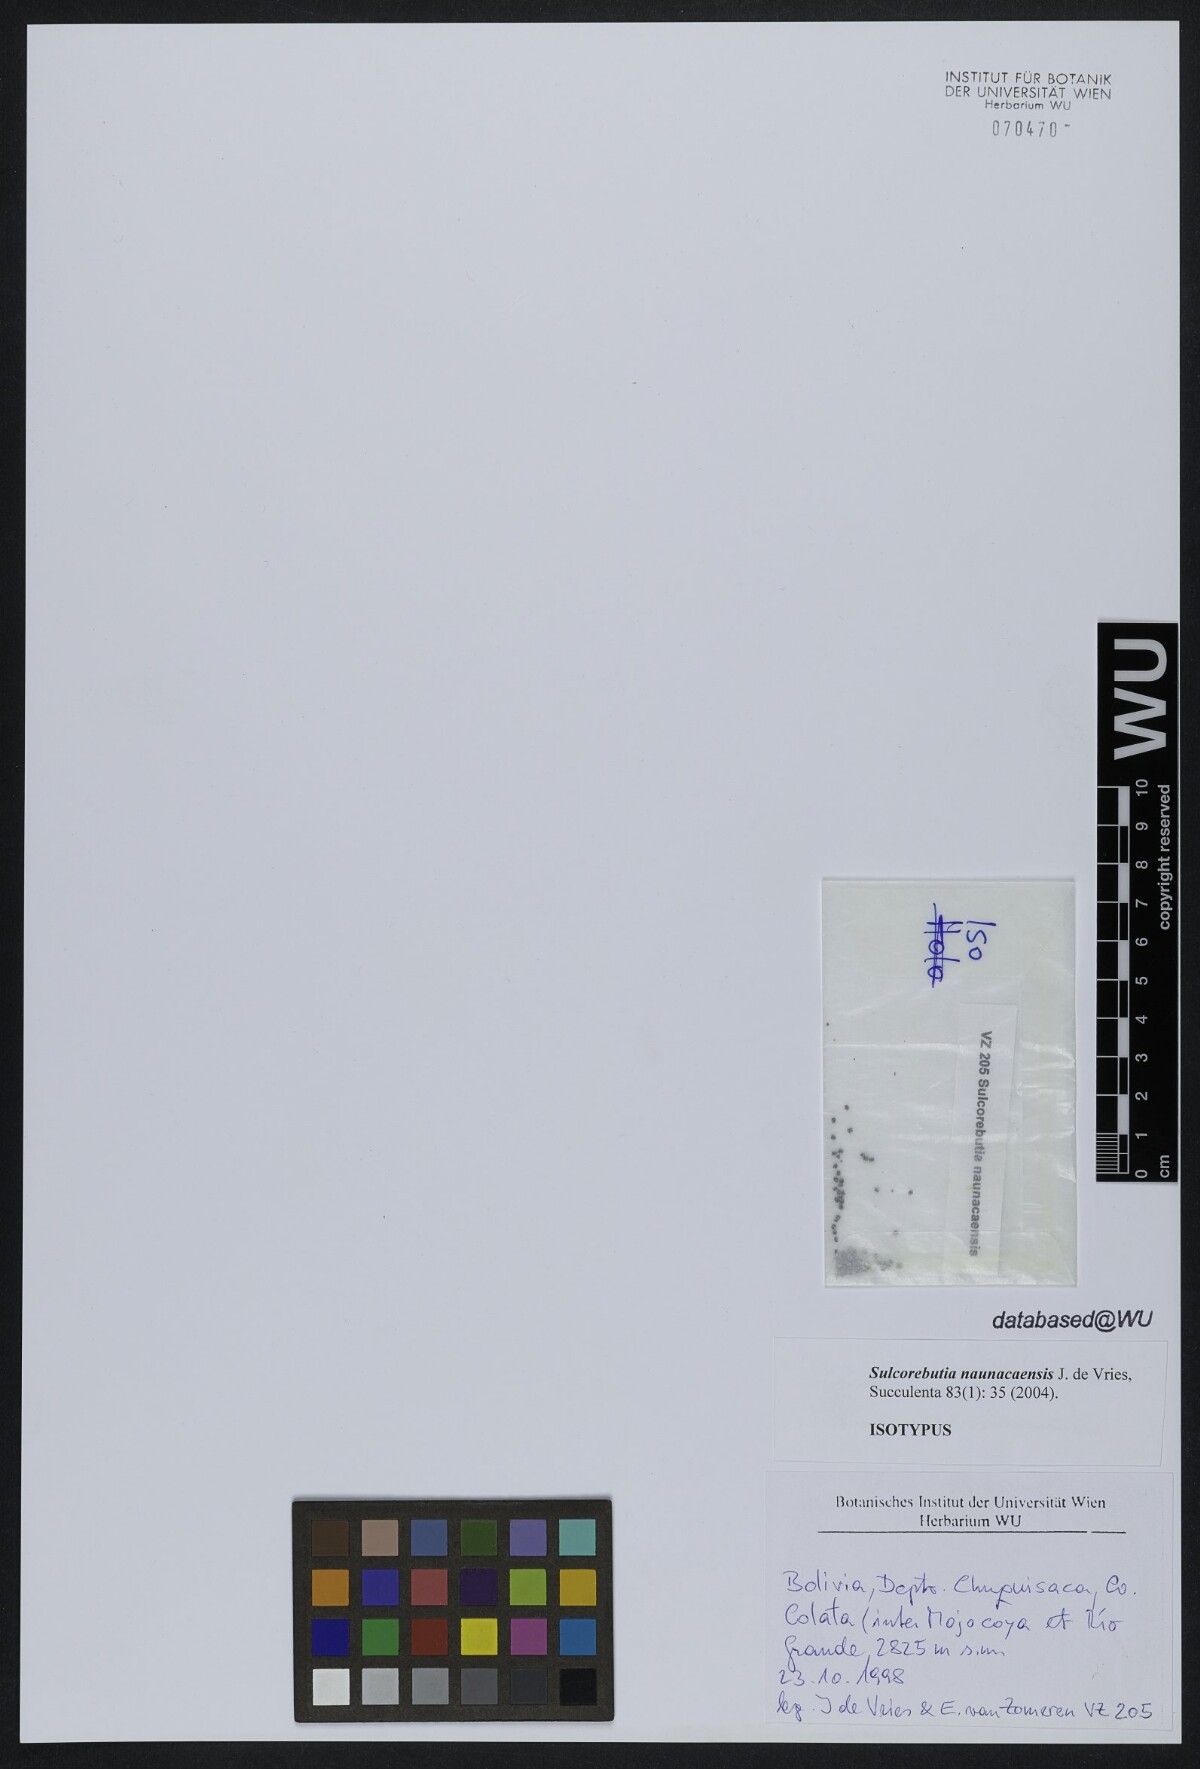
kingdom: Plantae
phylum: Tracheophyta
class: Magnoliopsida
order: Caryophyllales
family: Cactaceae
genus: Weingartia
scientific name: Weingartia canigueralii
